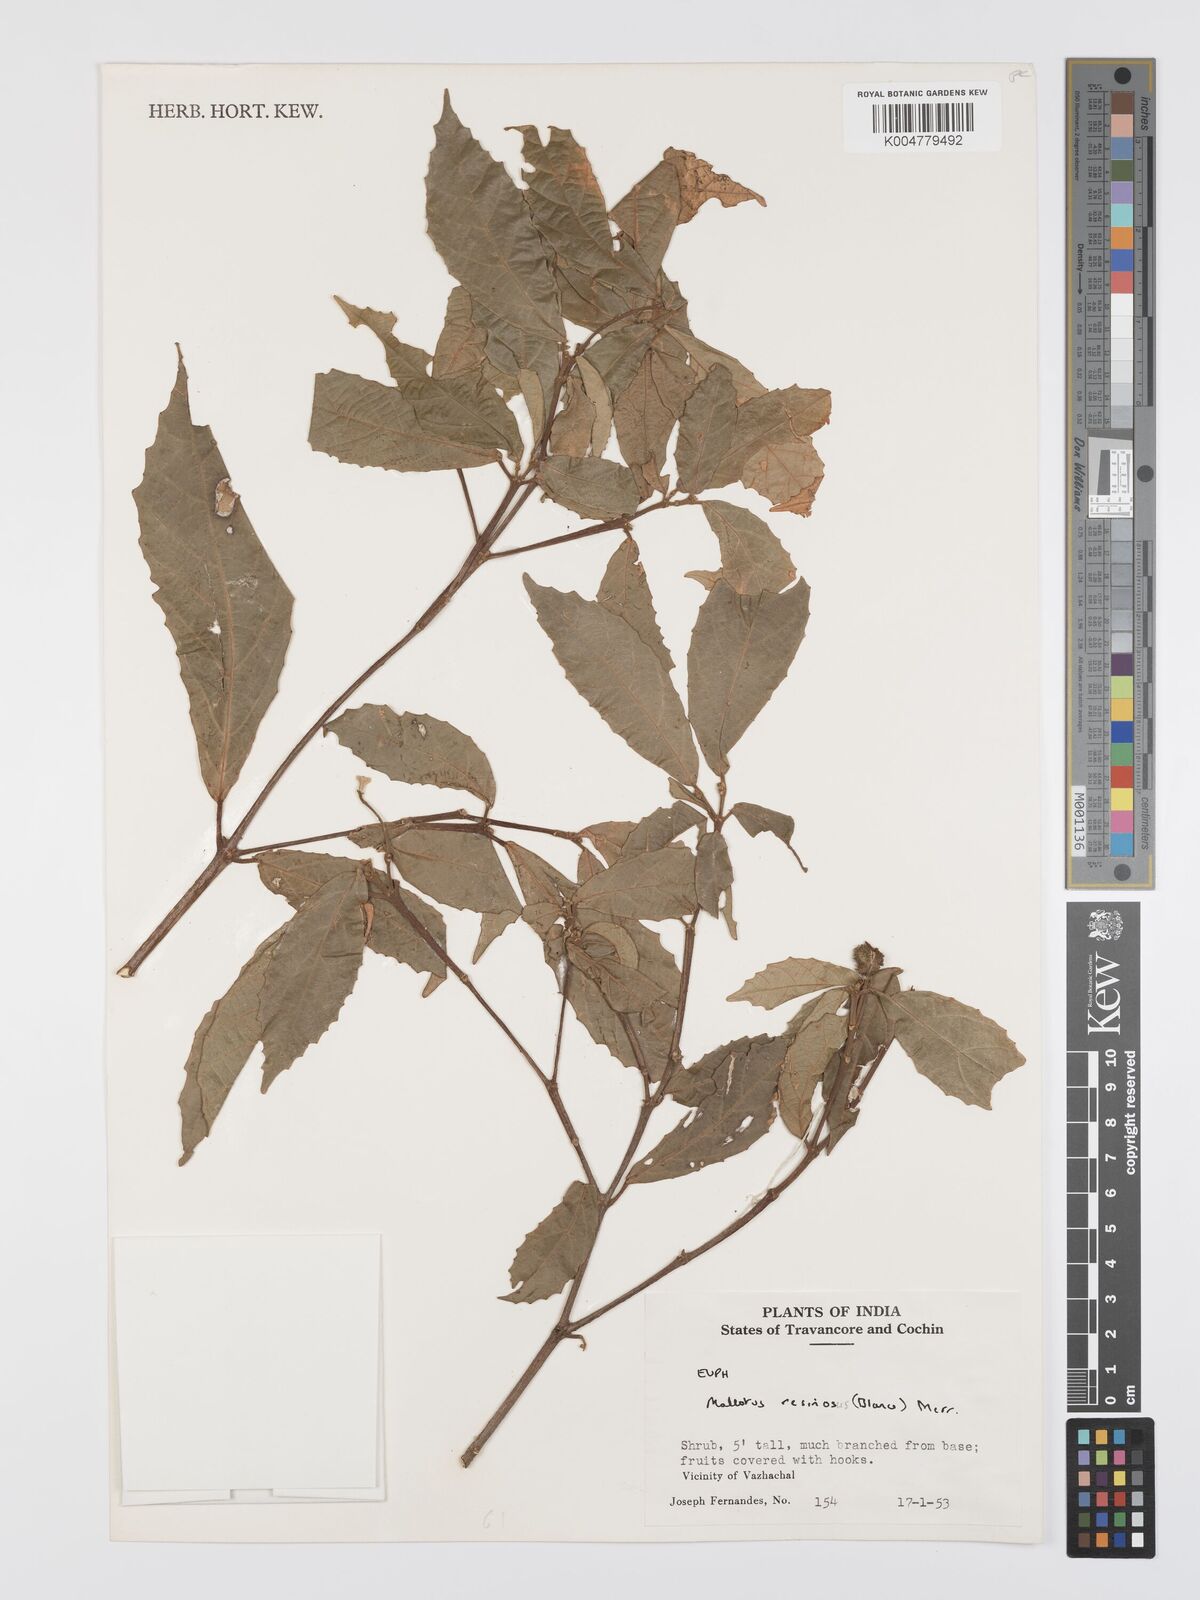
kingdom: Plantae
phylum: Tracheophyta
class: Magnoliopsida
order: Malpighiales
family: Euphorbiaceae
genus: Mallotus
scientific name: Mallotus resinosus
